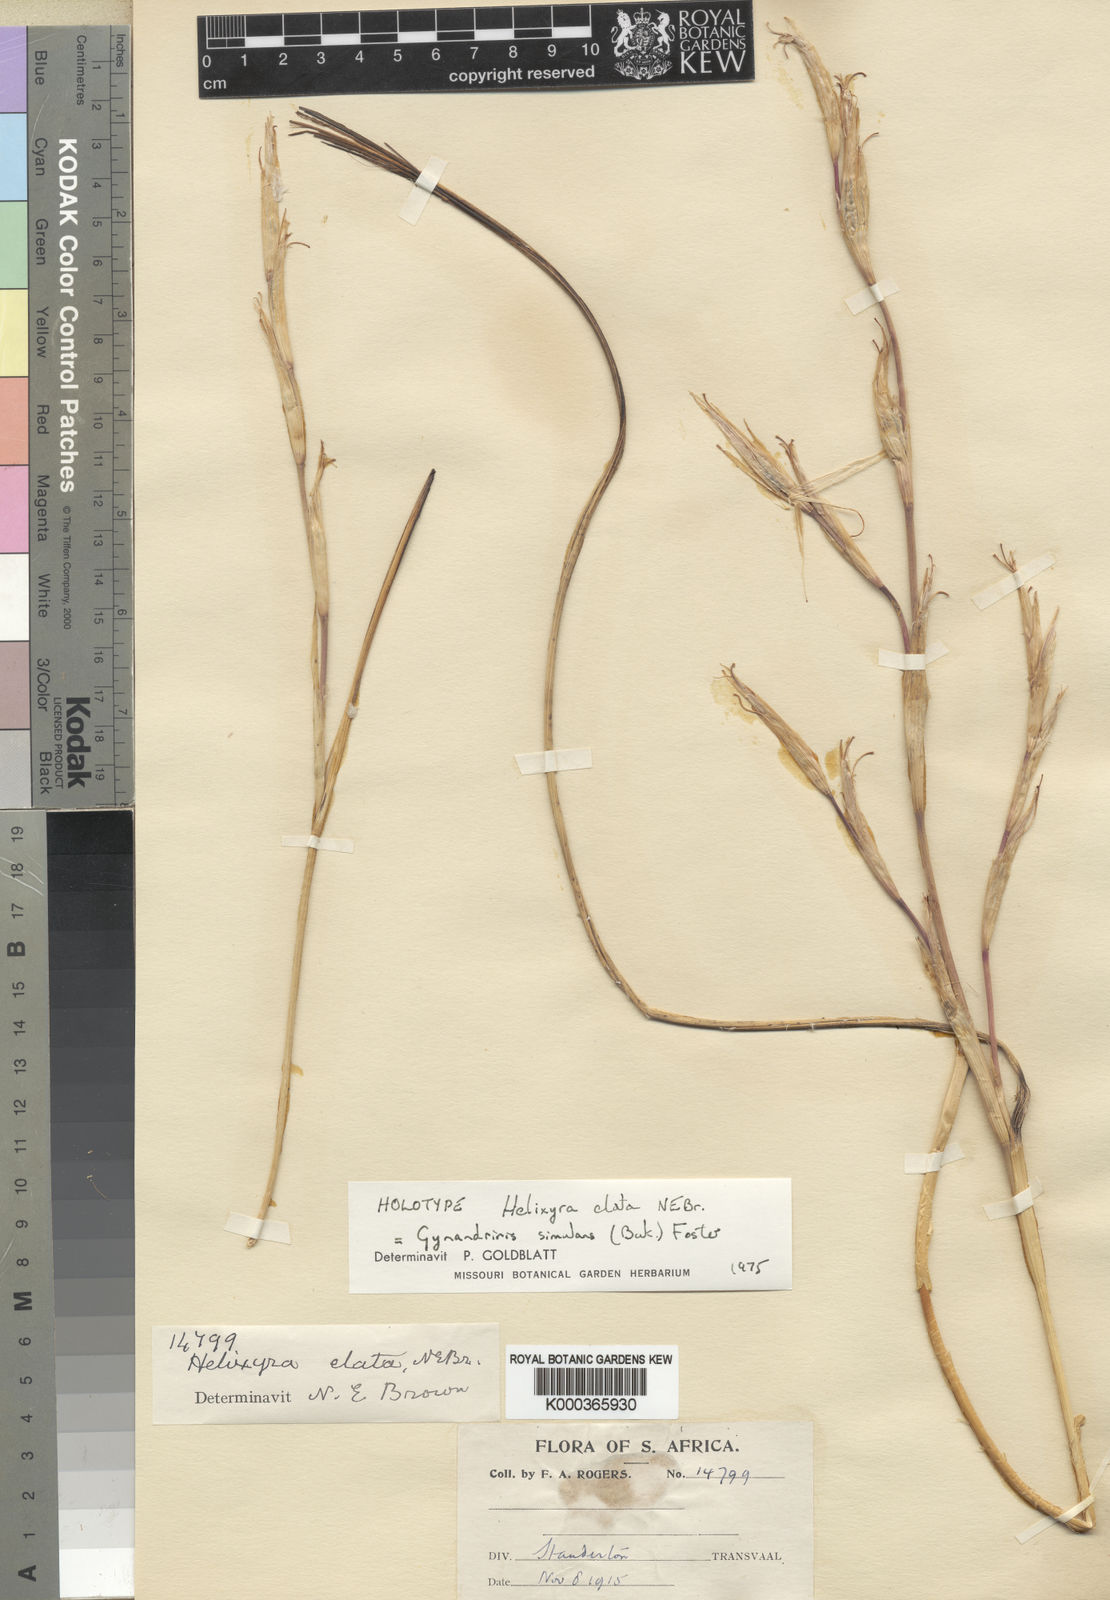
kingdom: Plantae
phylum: Tracheophyta
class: Liliopsida
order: Asparagales
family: Iridaceae
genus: Moraea
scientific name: Moraea simulans
